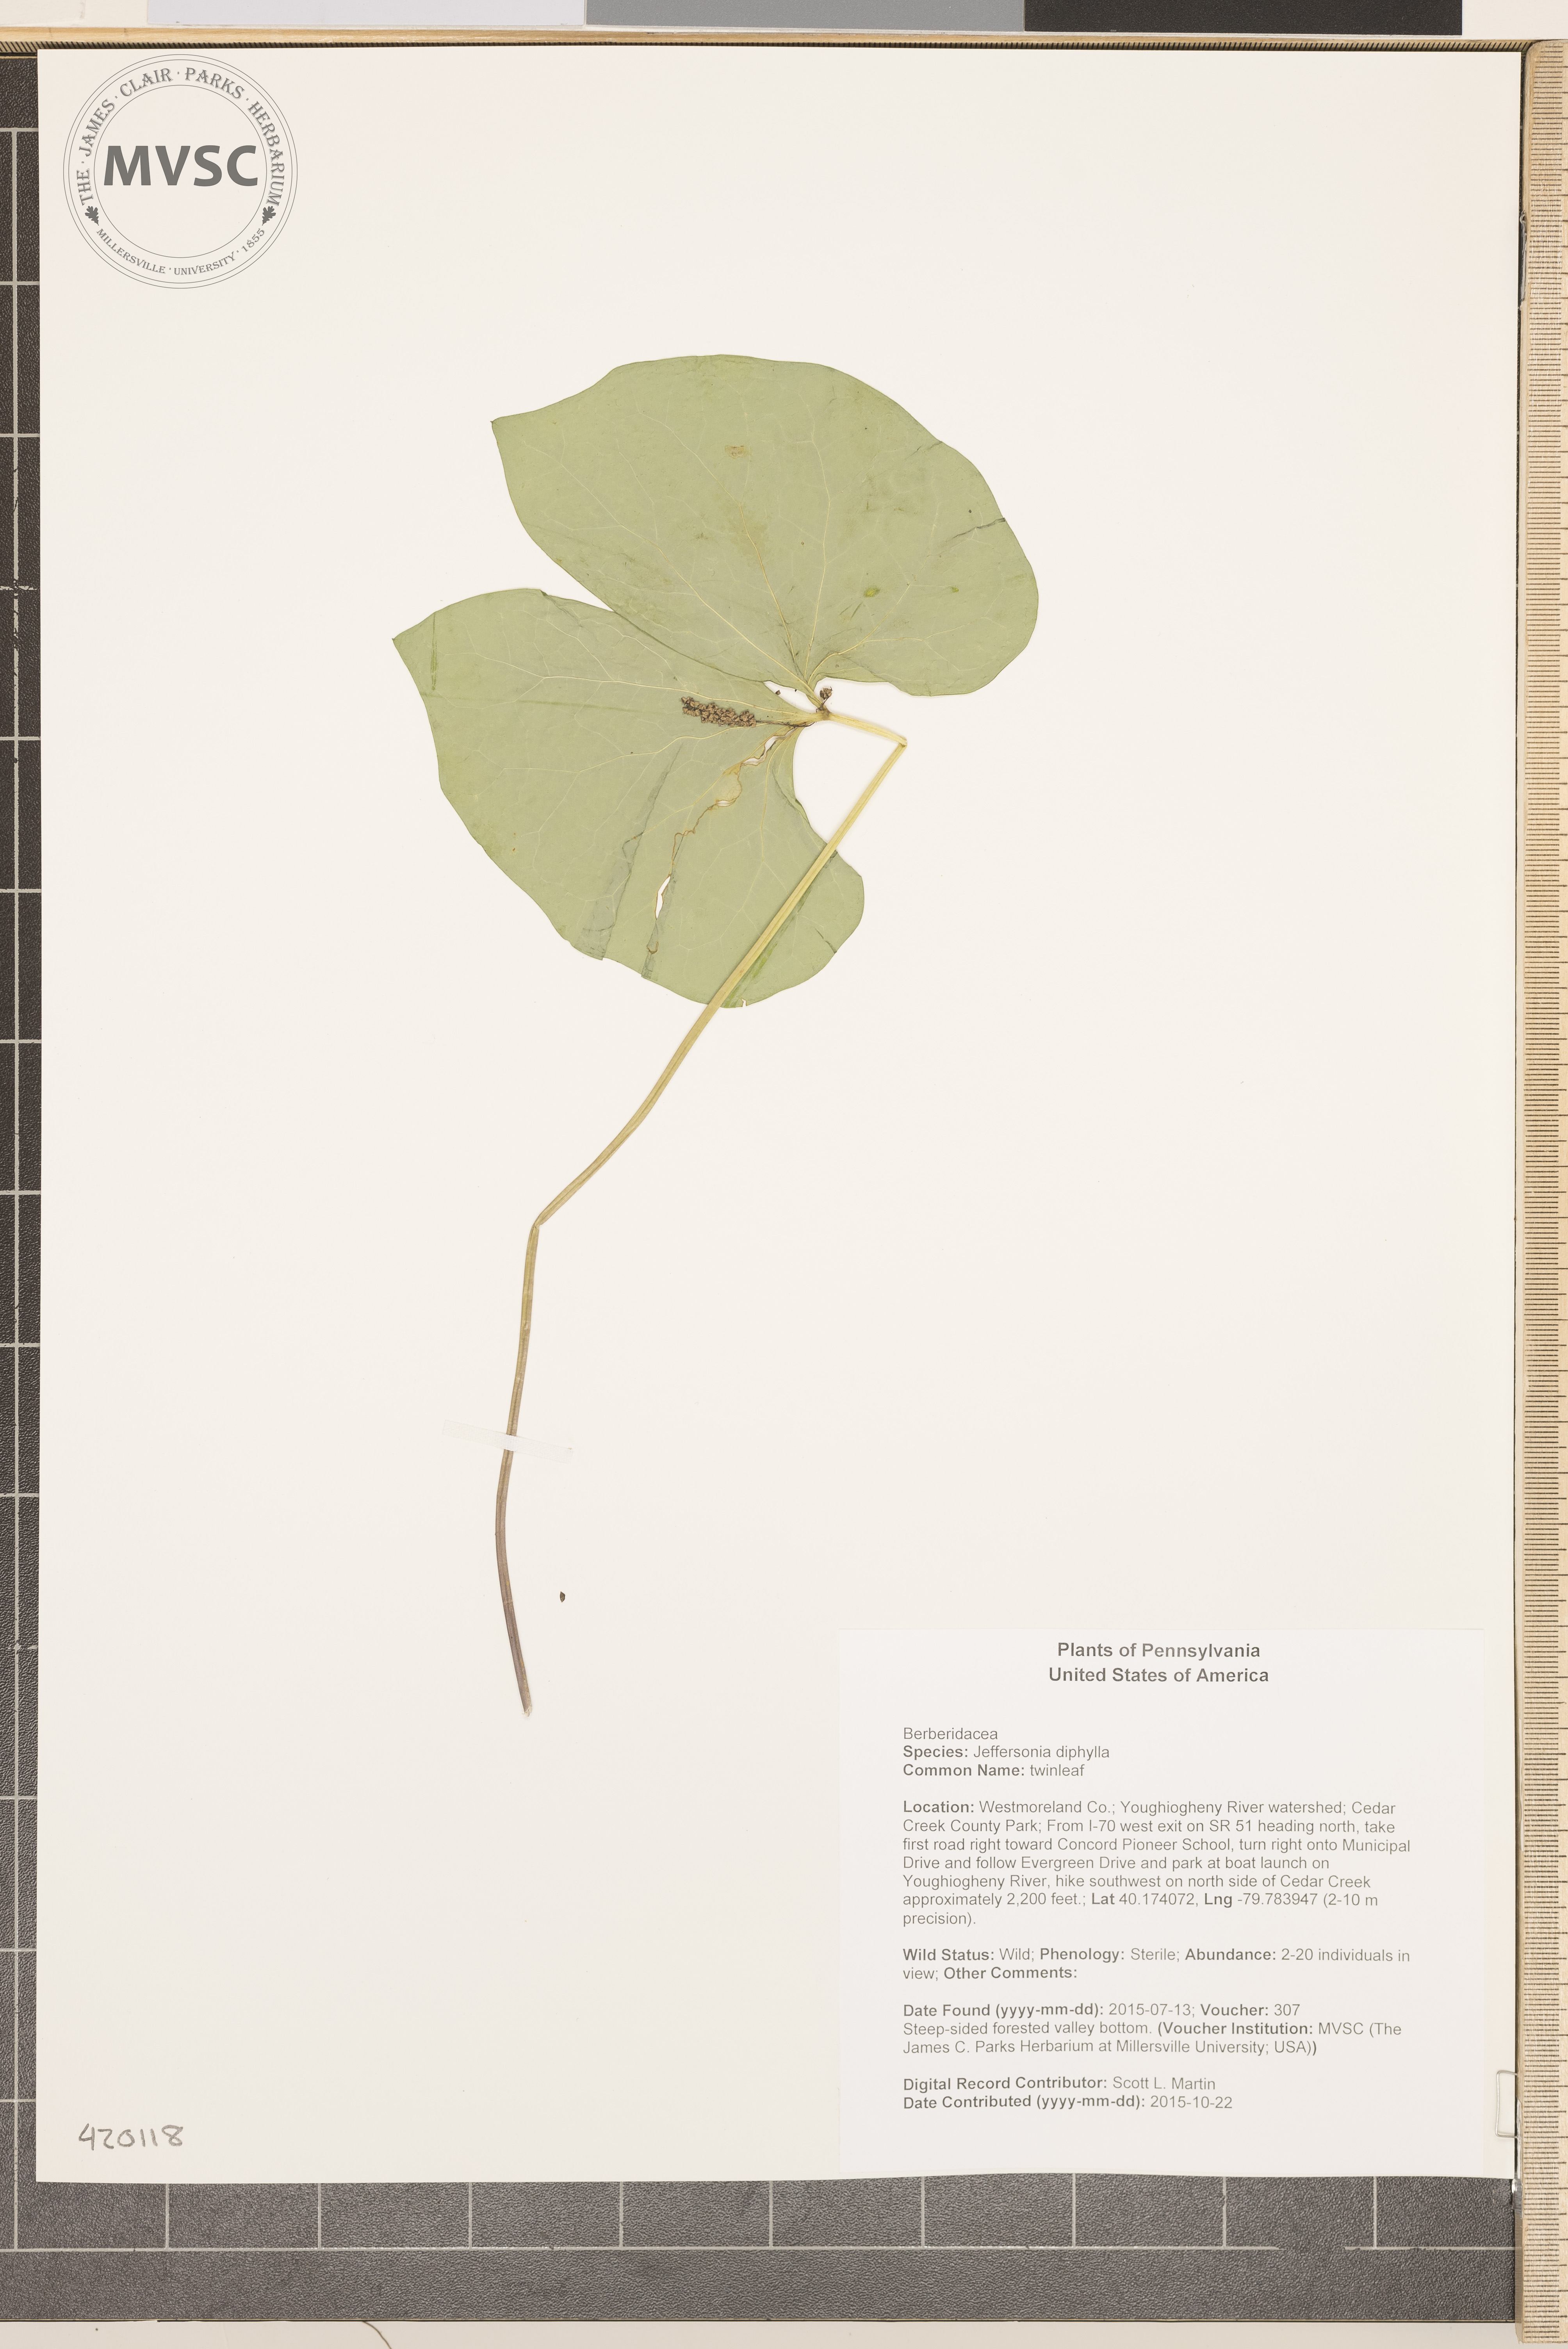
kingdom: Plantae
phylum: Tracheophyta
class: Magnoliopsida
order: Ranunculales
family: Berberidaceae
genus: Jeffersonia
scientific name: Jeffersonia diphylla
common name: twinleaf
